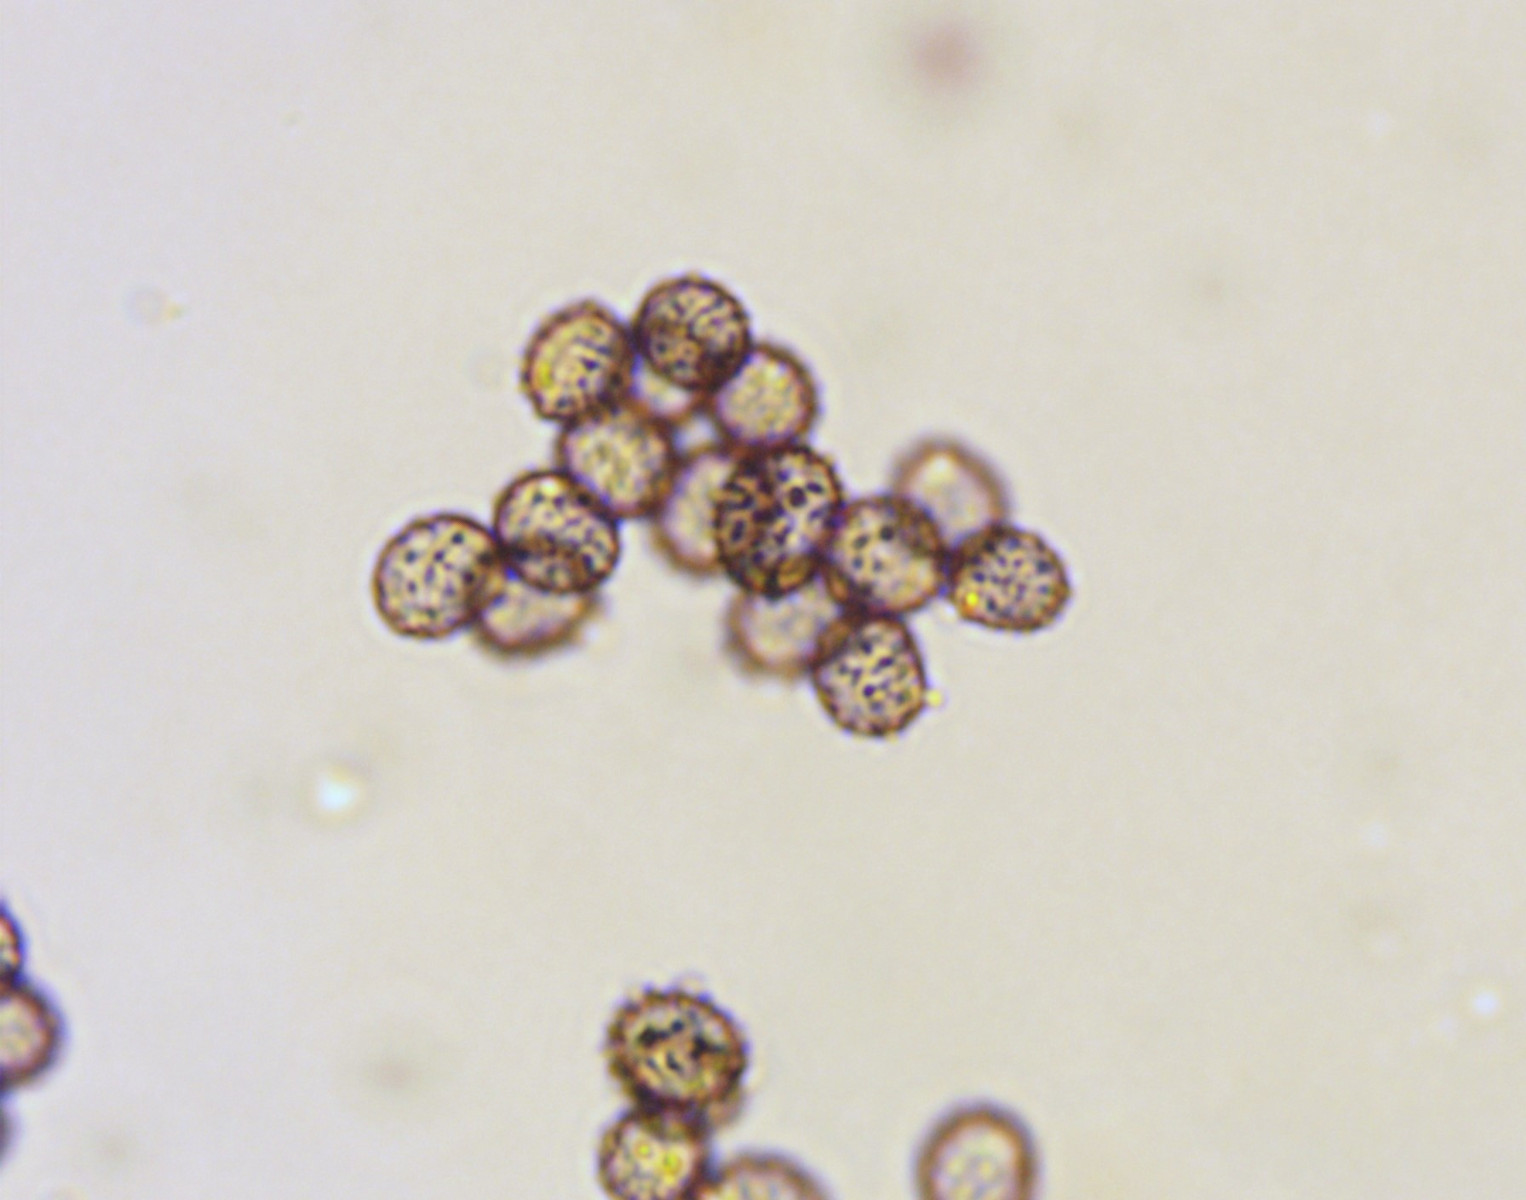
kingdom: Fungi
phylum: Basidiomycota
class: Agaricomycetes
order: Russulales
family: Russulaceae
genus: Russula
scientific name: Russula grisea
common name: grålig skørhat
